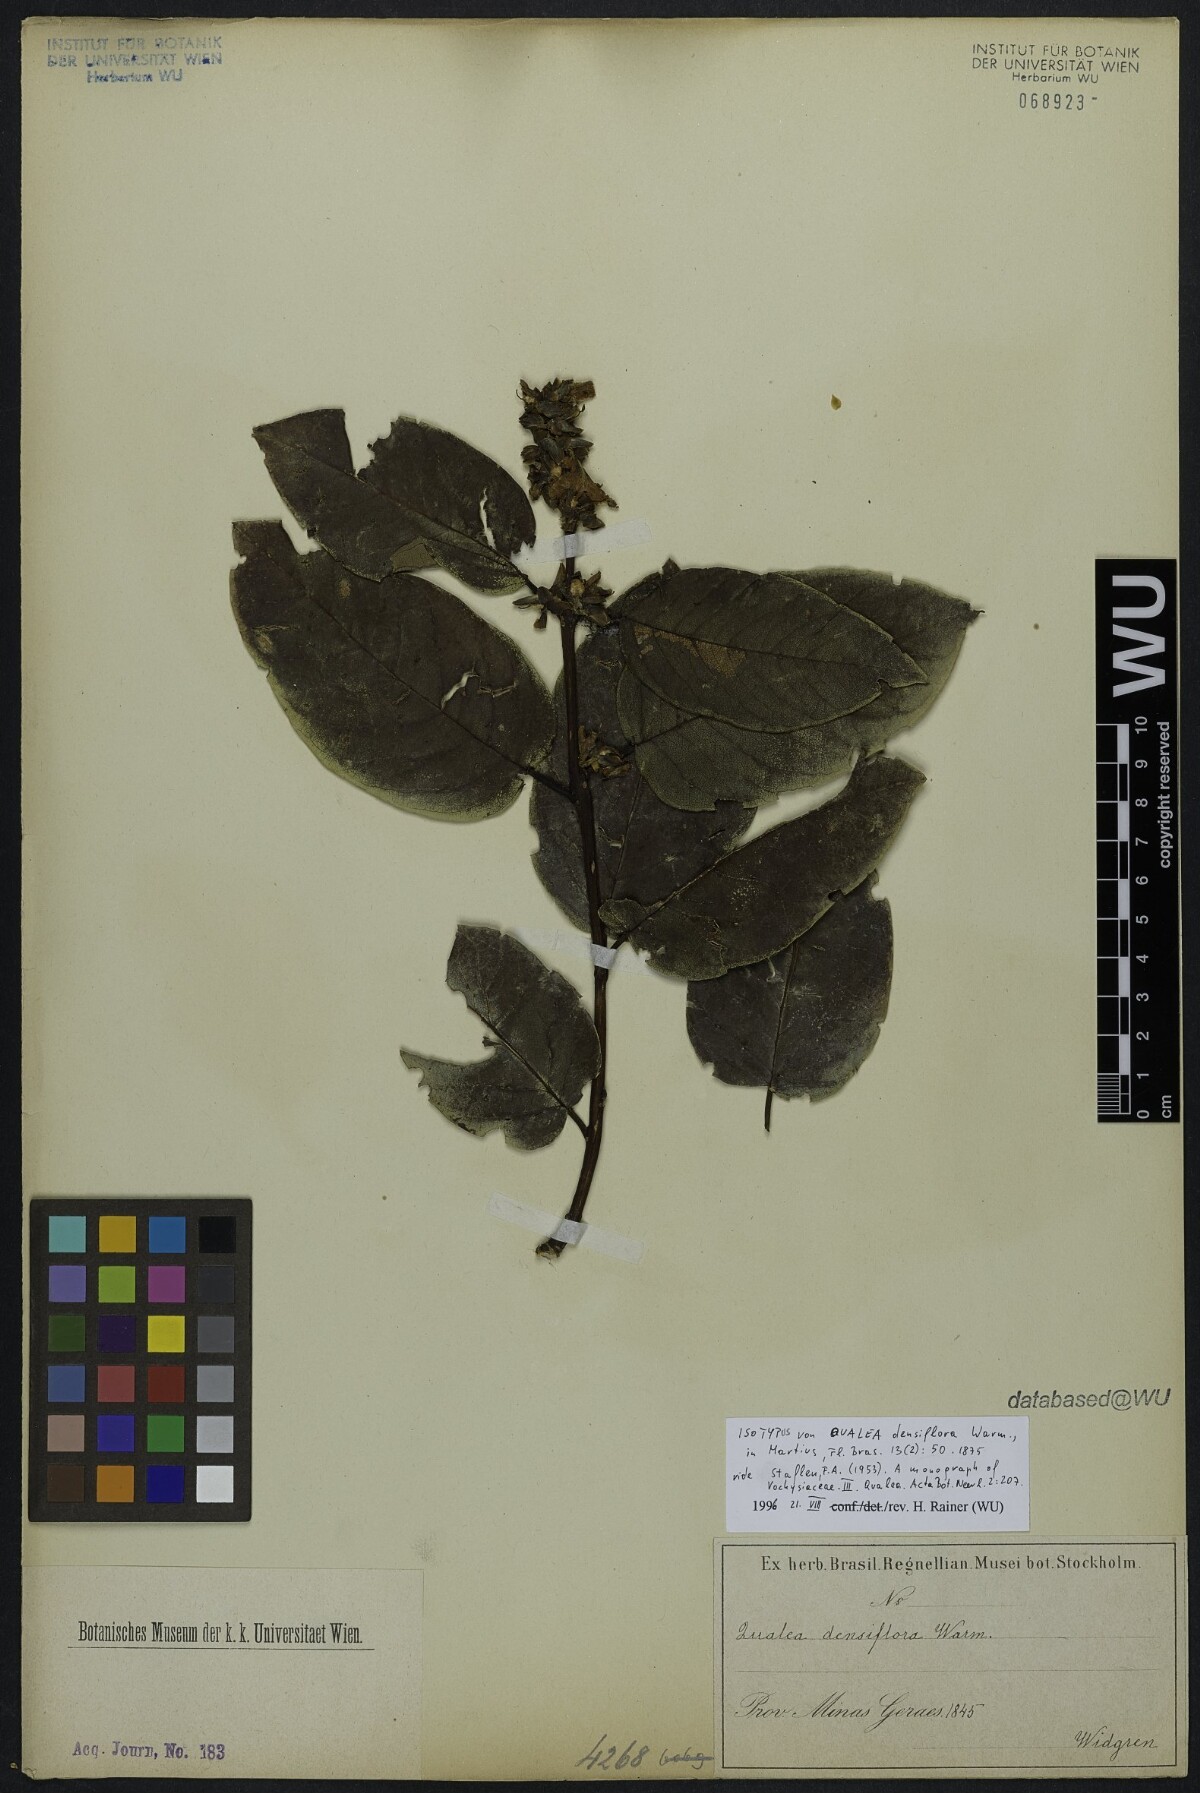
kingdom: Plantae
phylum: Tracheophyta
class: Magnoliopsida
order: Myrtales
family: Vochysiaceae
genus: Qualea
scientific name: Qualea densiflora
